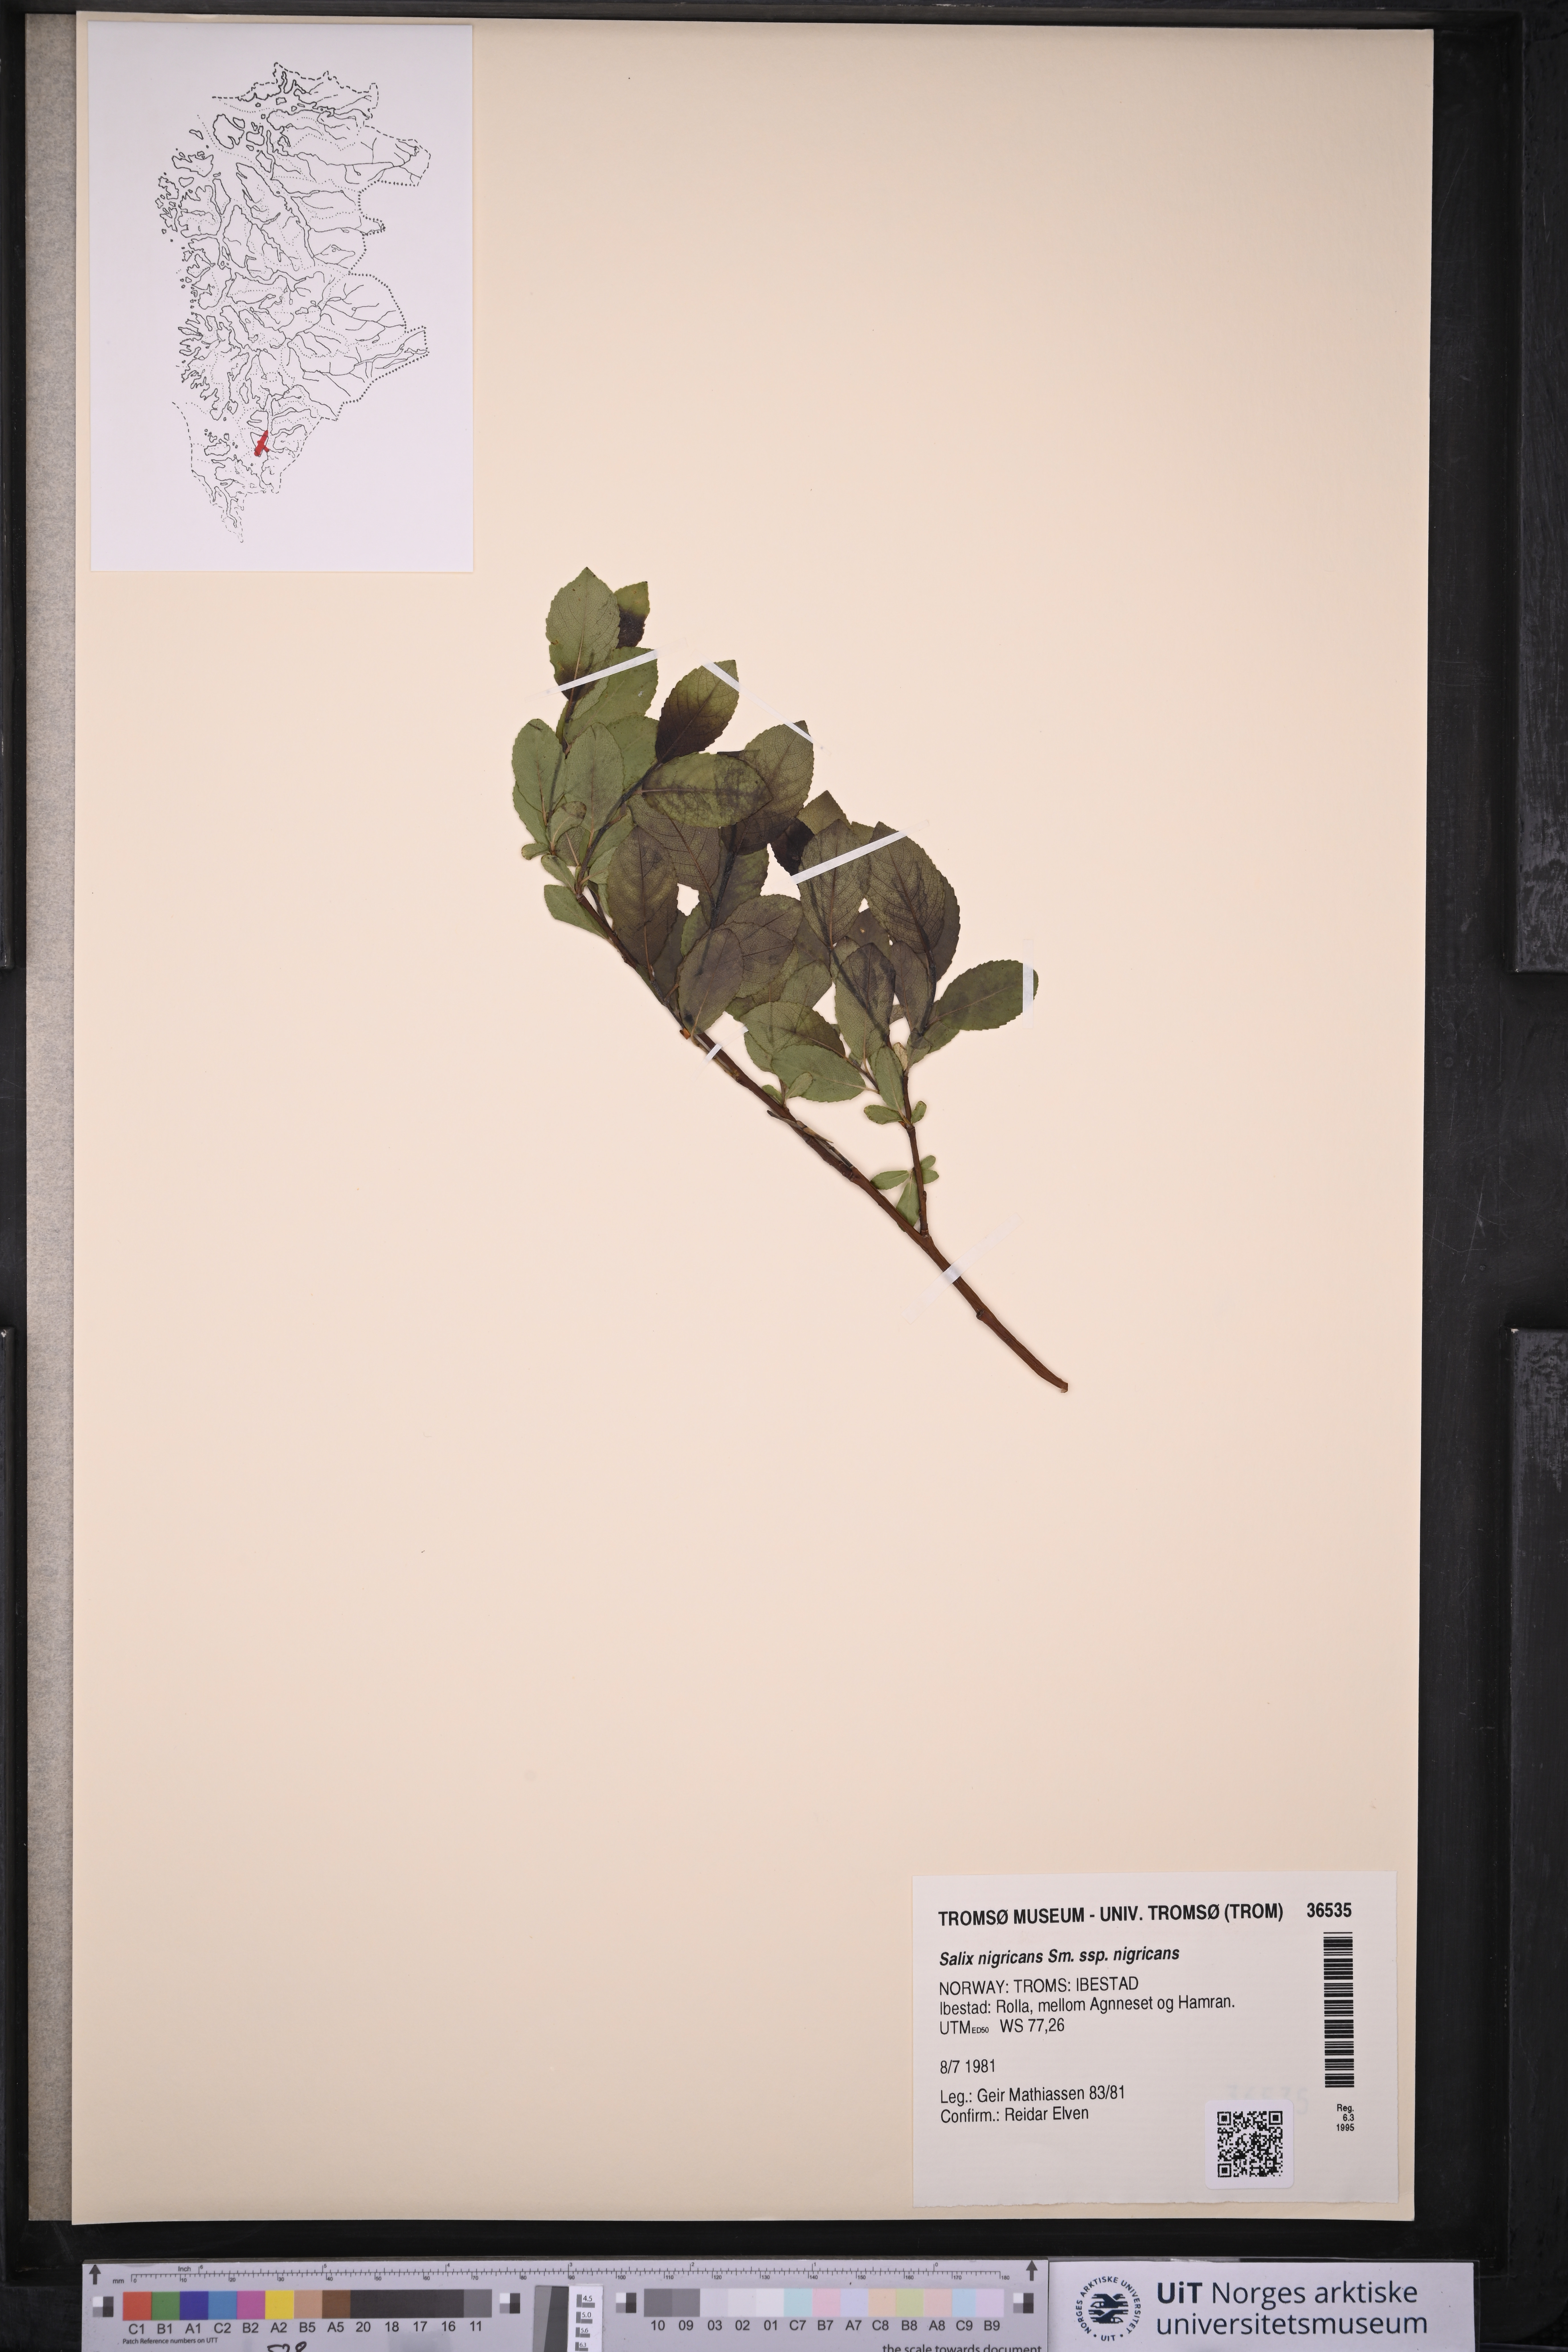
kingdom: Plantae
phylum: Tracheophyta
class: Magnoliopsida
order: Malpighiales
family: Salicaceae
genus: Salix
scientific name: Salix myrsinifolia
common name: Dark-leaved willow
